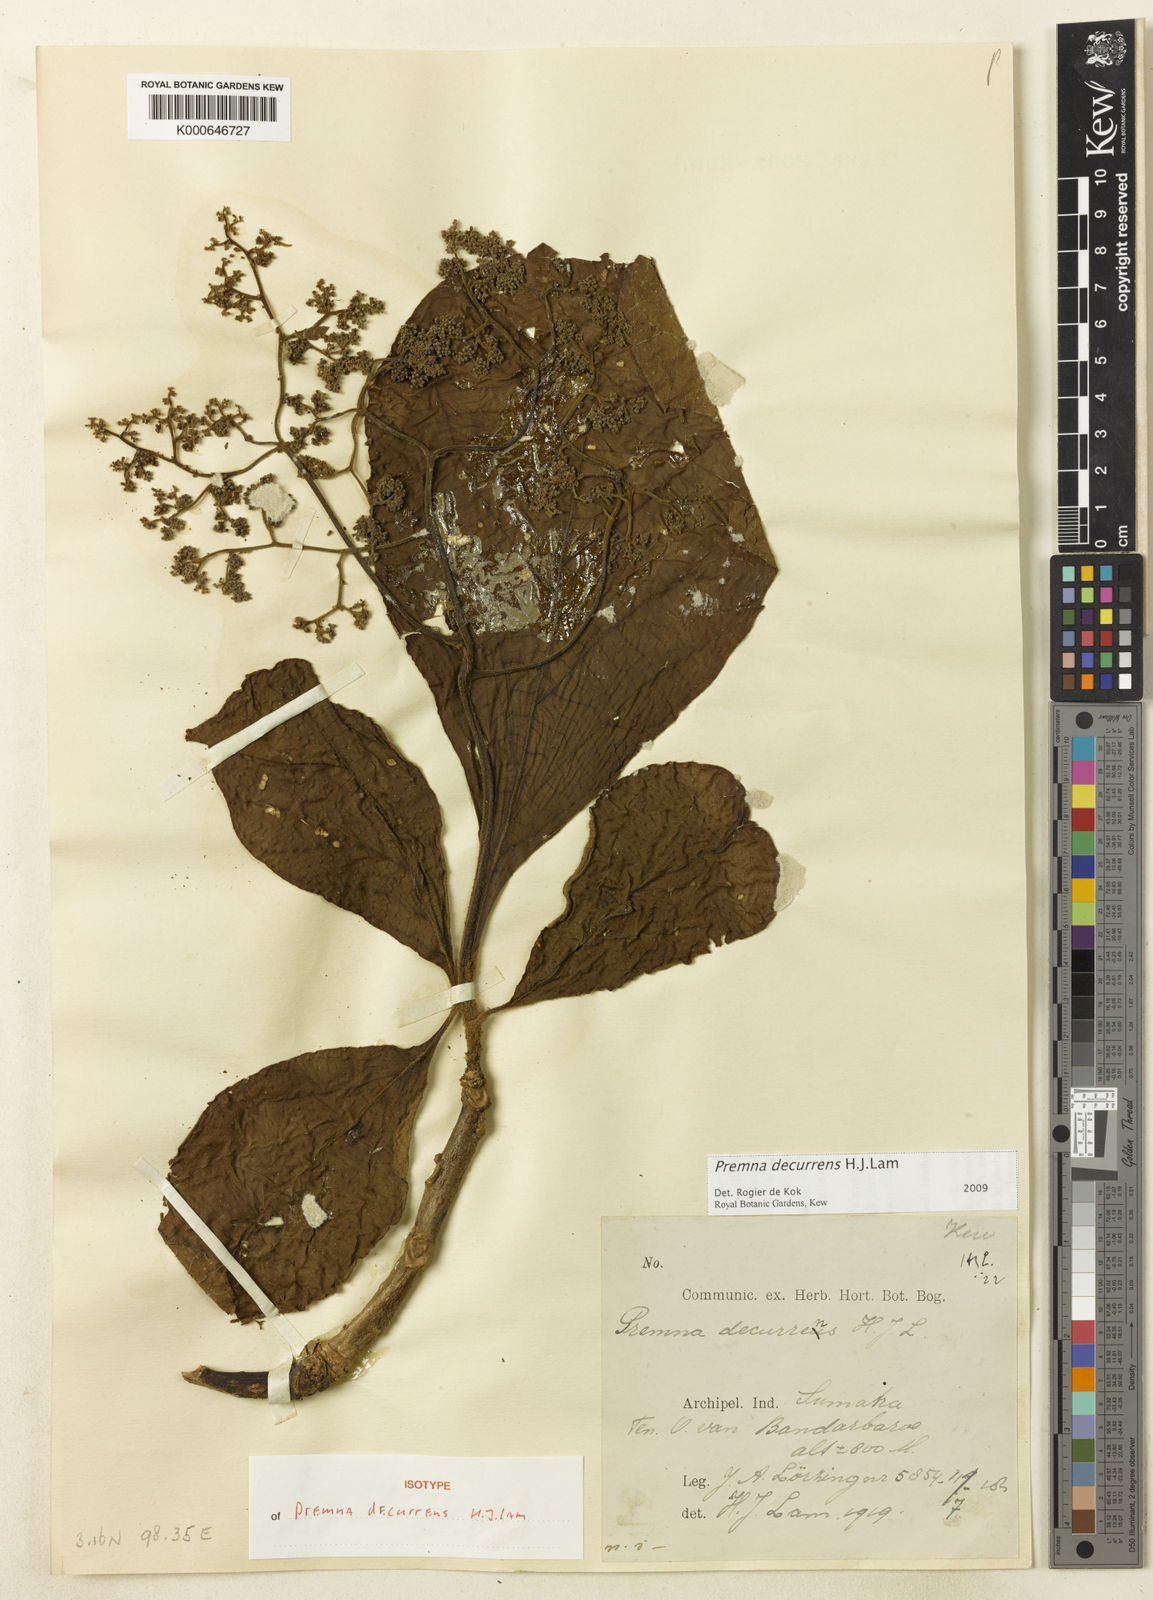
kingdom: Plantae
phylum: Tracheophyta
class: Magnoliopsida
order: Lamiales
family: Lamiaceae
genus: Premna
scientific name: Premna decurrens
